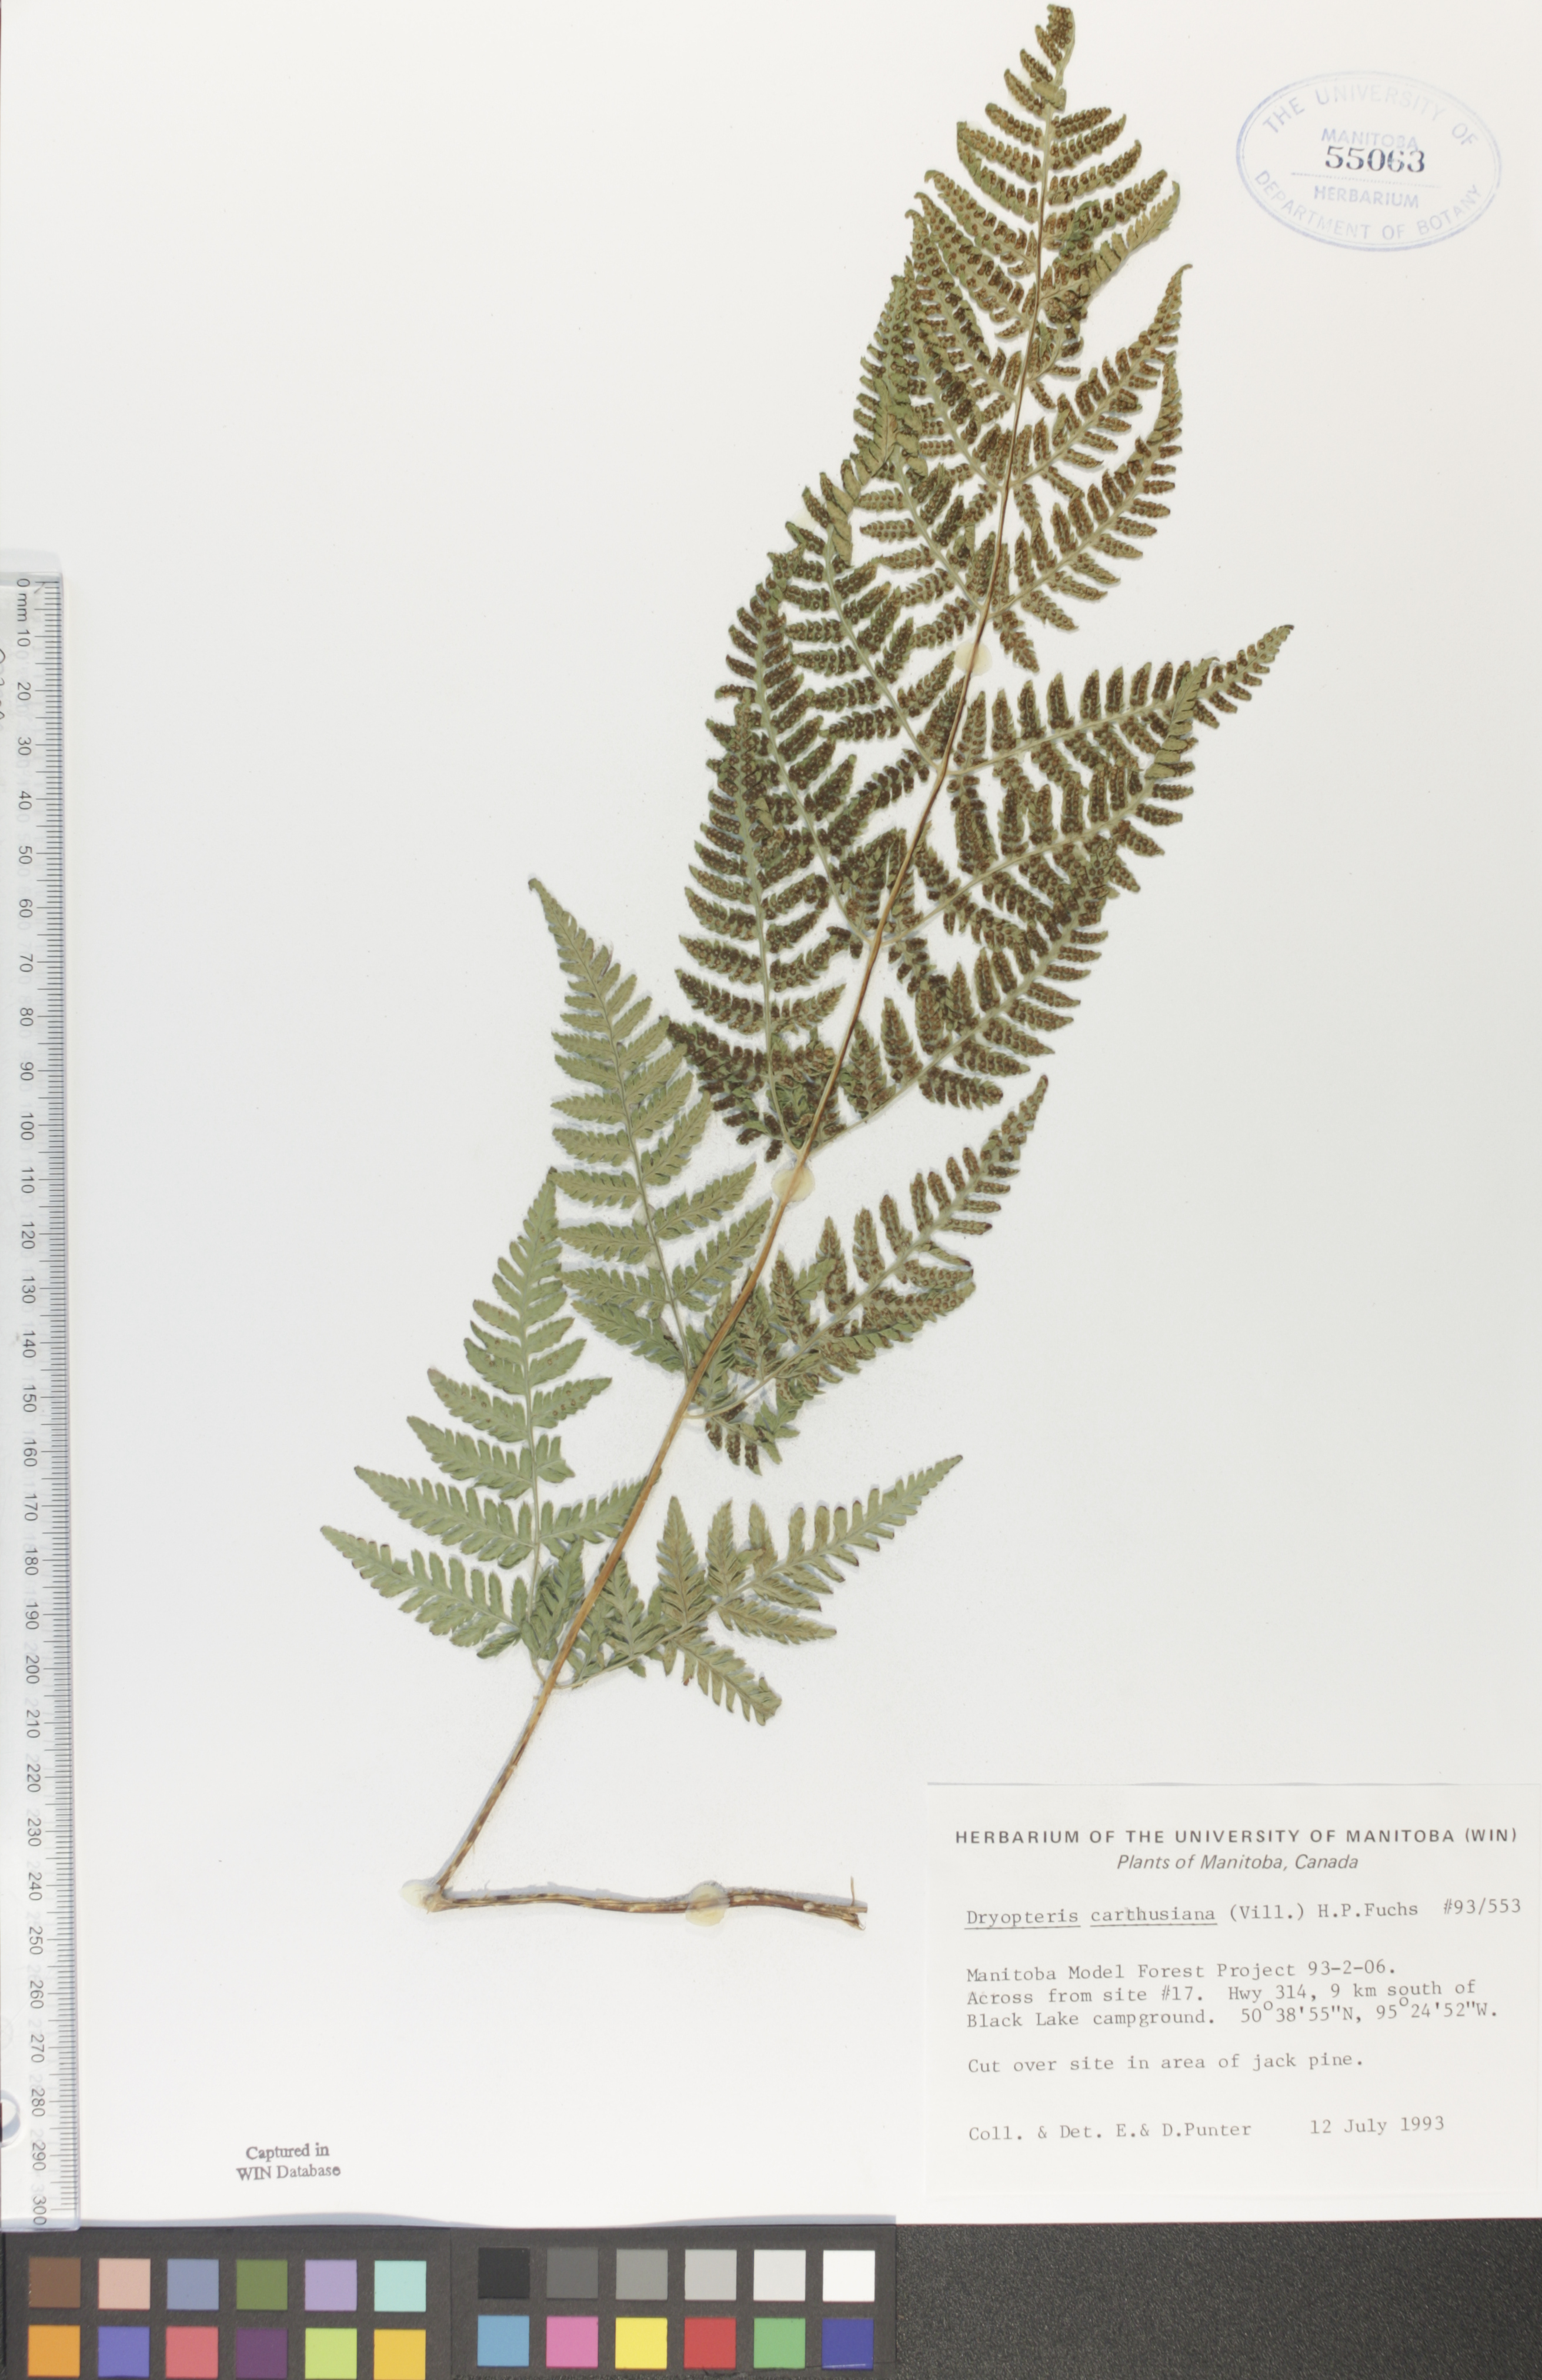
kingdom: Plantae
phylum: Tracheophyta
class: Polypodiopsida
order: Polypodiales
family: Dryopteridaceae
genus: Dryopteris
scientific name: Dryopteris carthusiana
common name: Narrow buckler-fern
